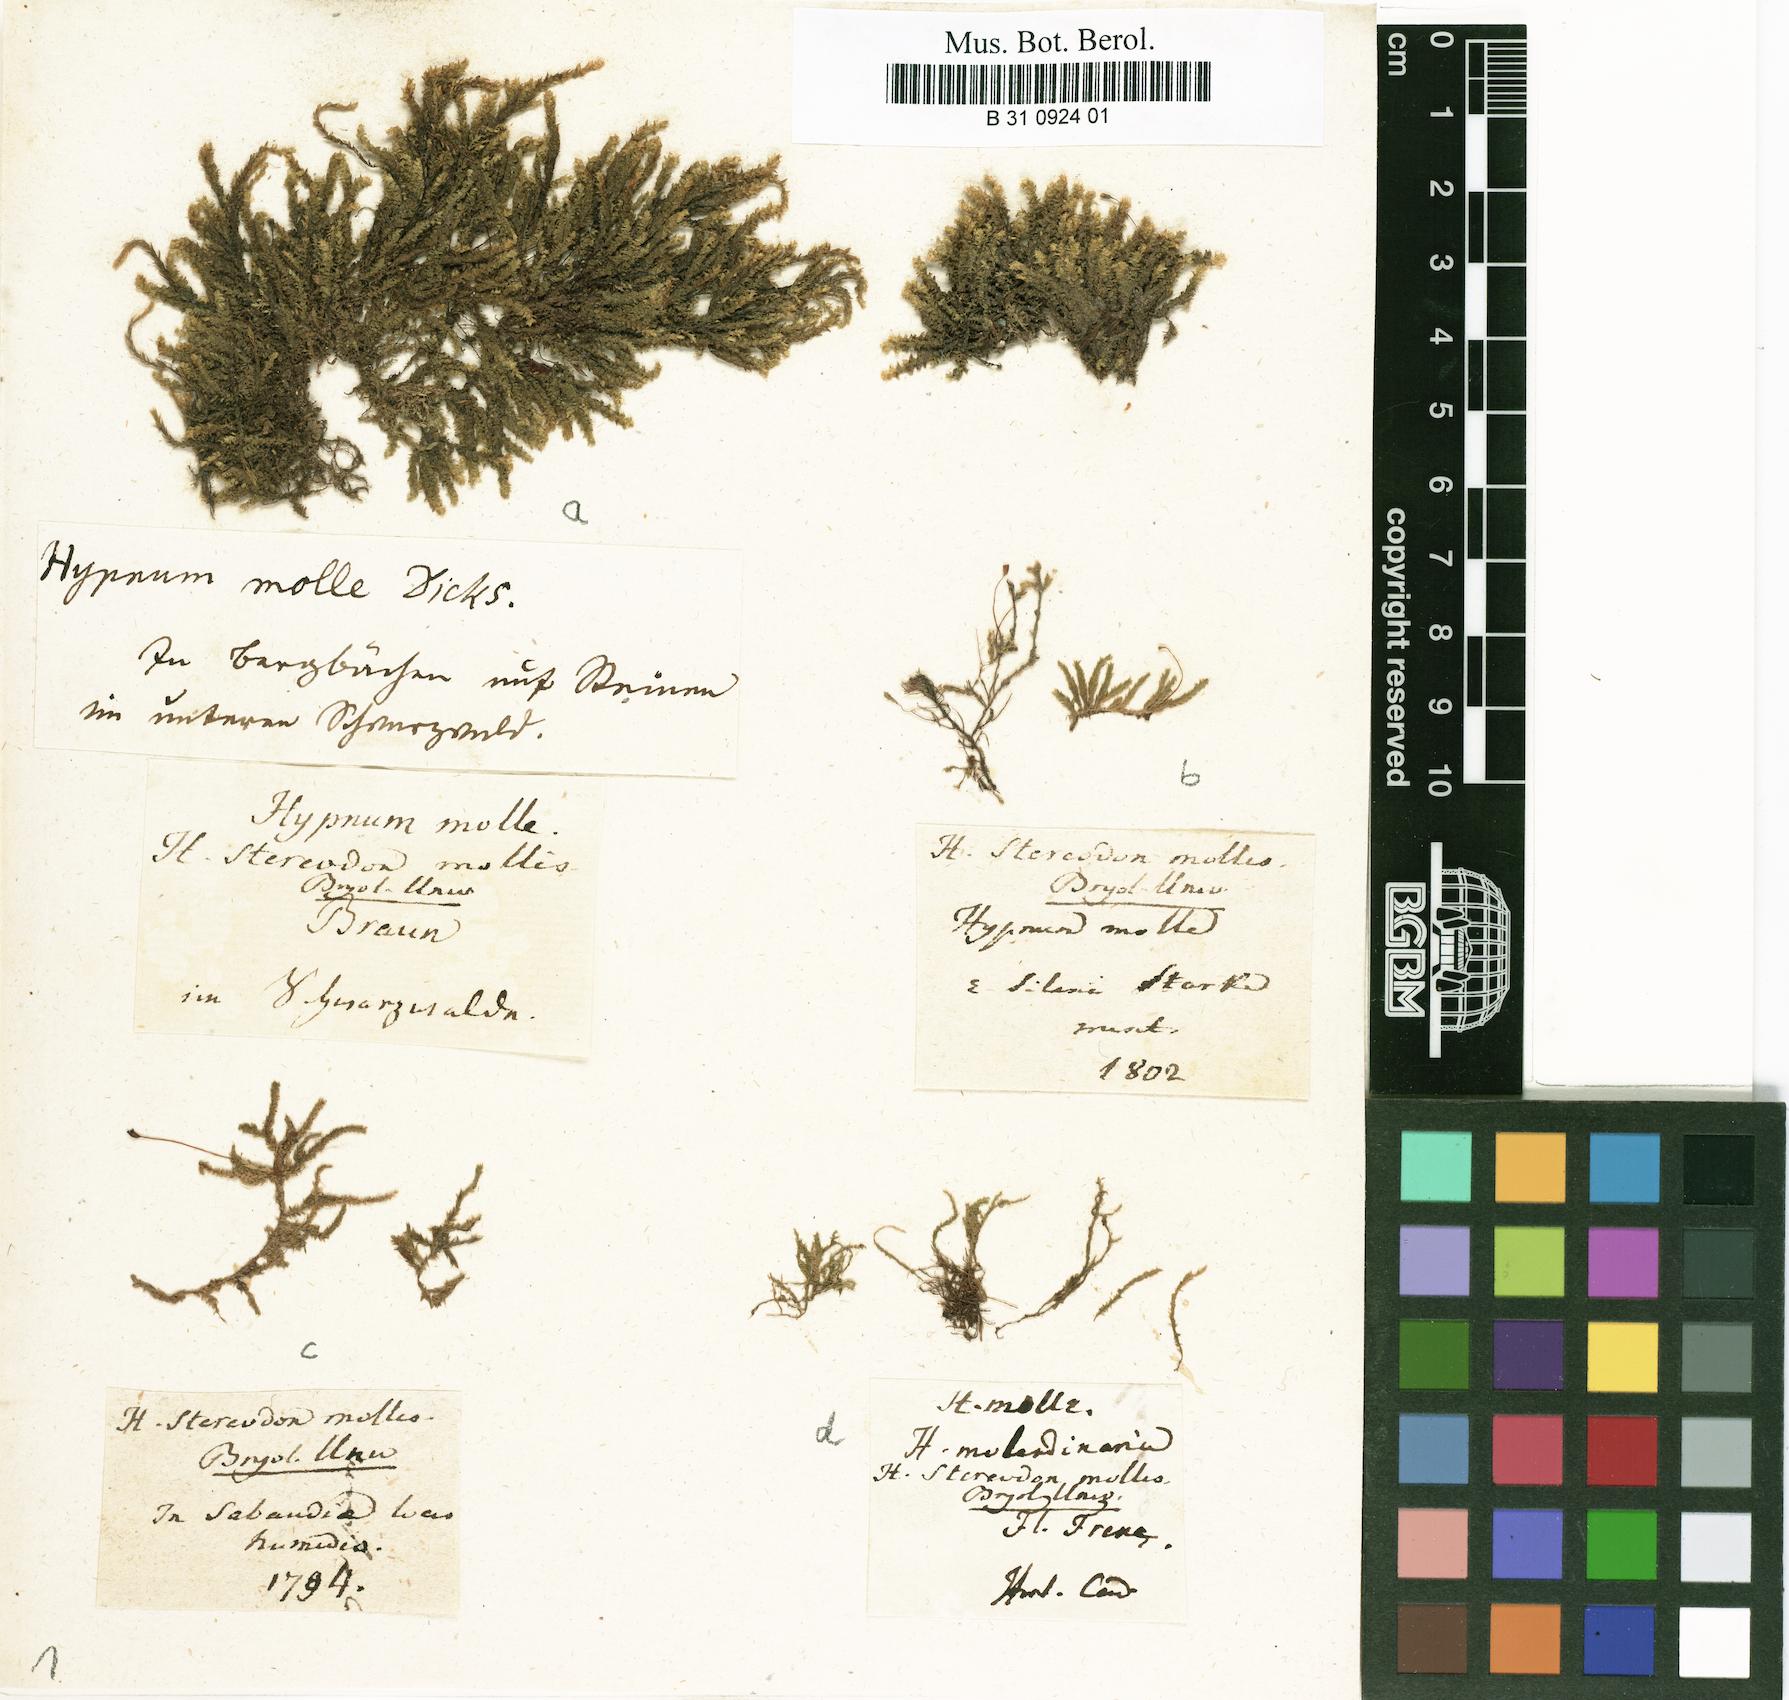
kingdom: Plantae
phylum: Bryophyta
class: Bryopsida
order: Hypnales
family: Lembophyllaceae
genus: Weymouthia
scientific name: Weymouthia mollis
